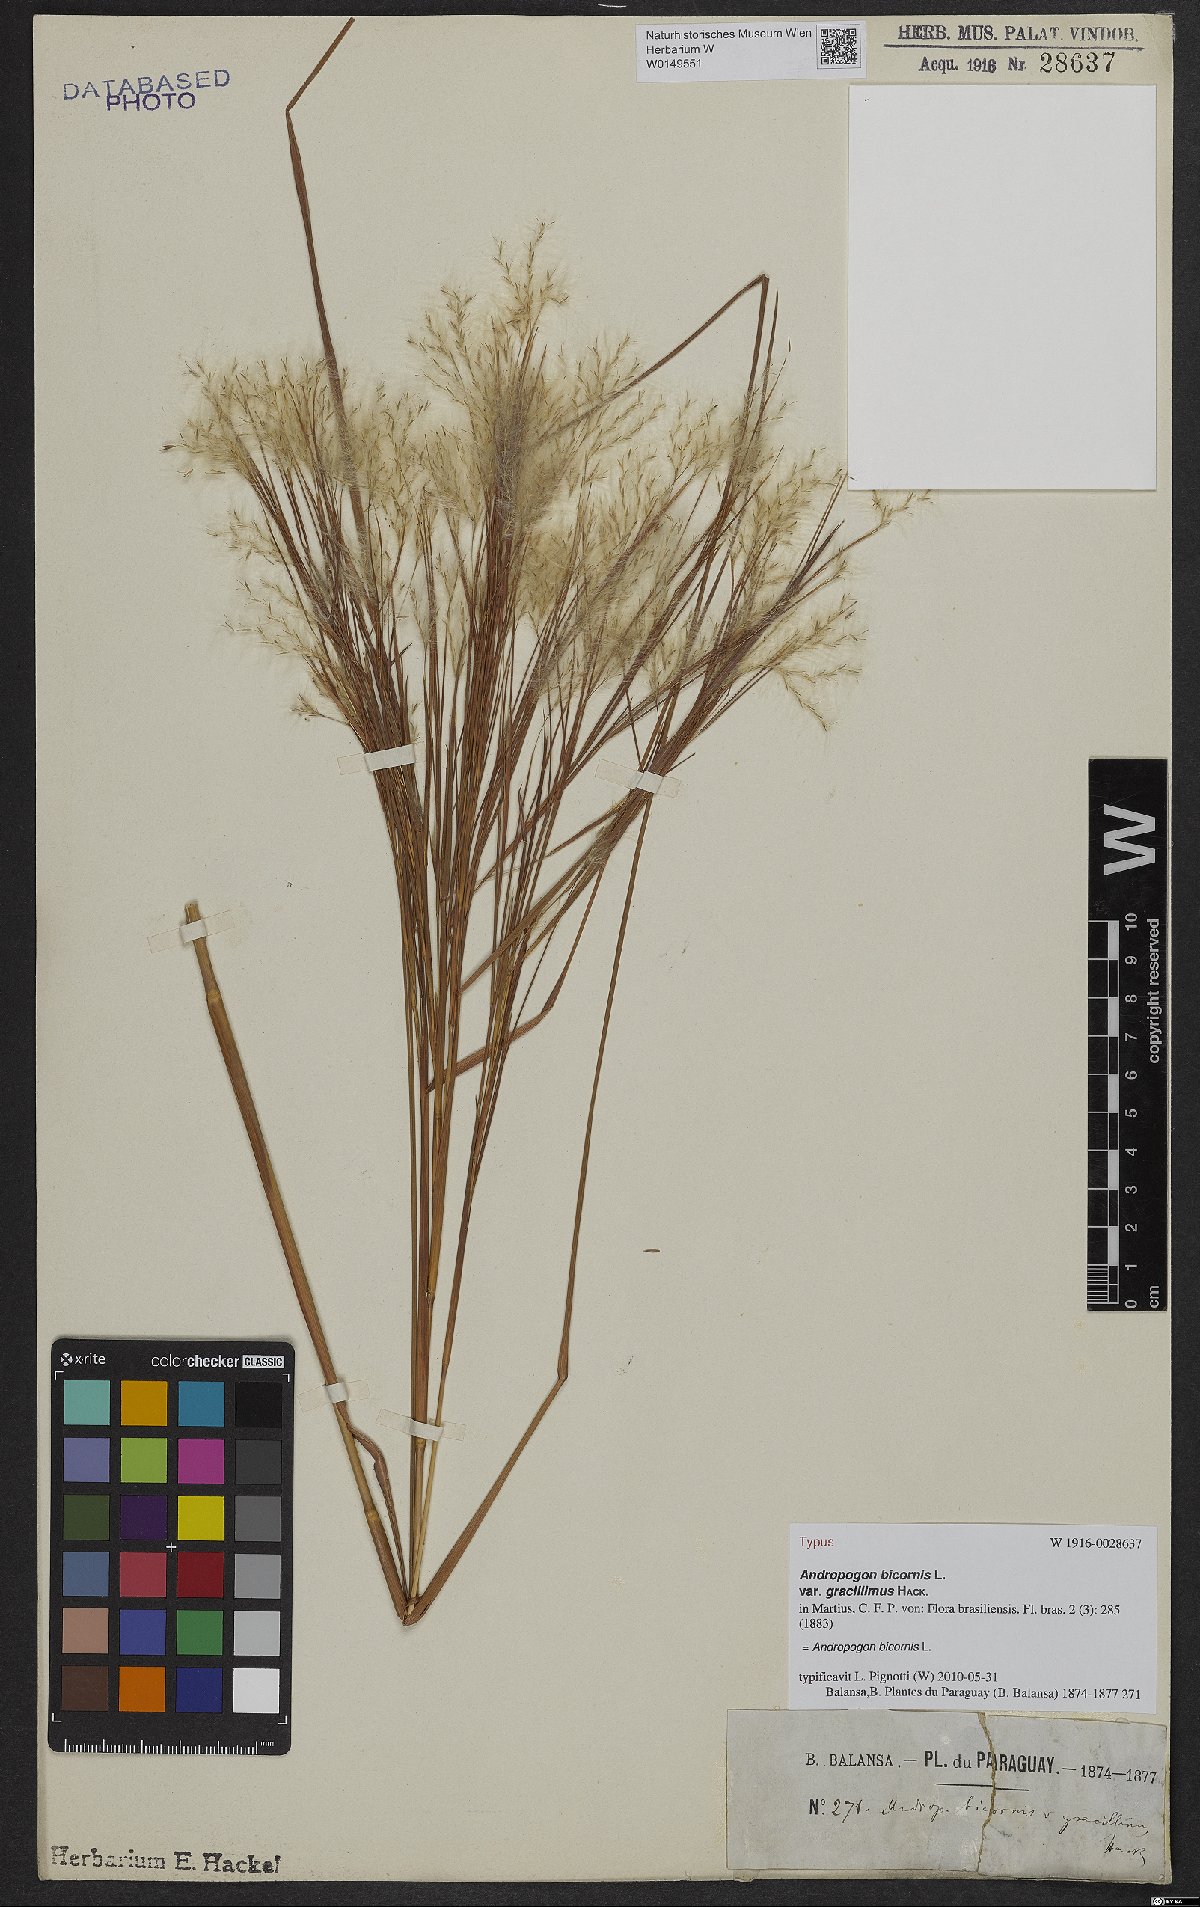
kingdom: Plantae
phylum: Tracheophyta
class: Liliopsida
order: Poales
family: Poaceae
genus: Andropogon
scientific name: Andropogon bicornis
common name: West indian foxtail grass
